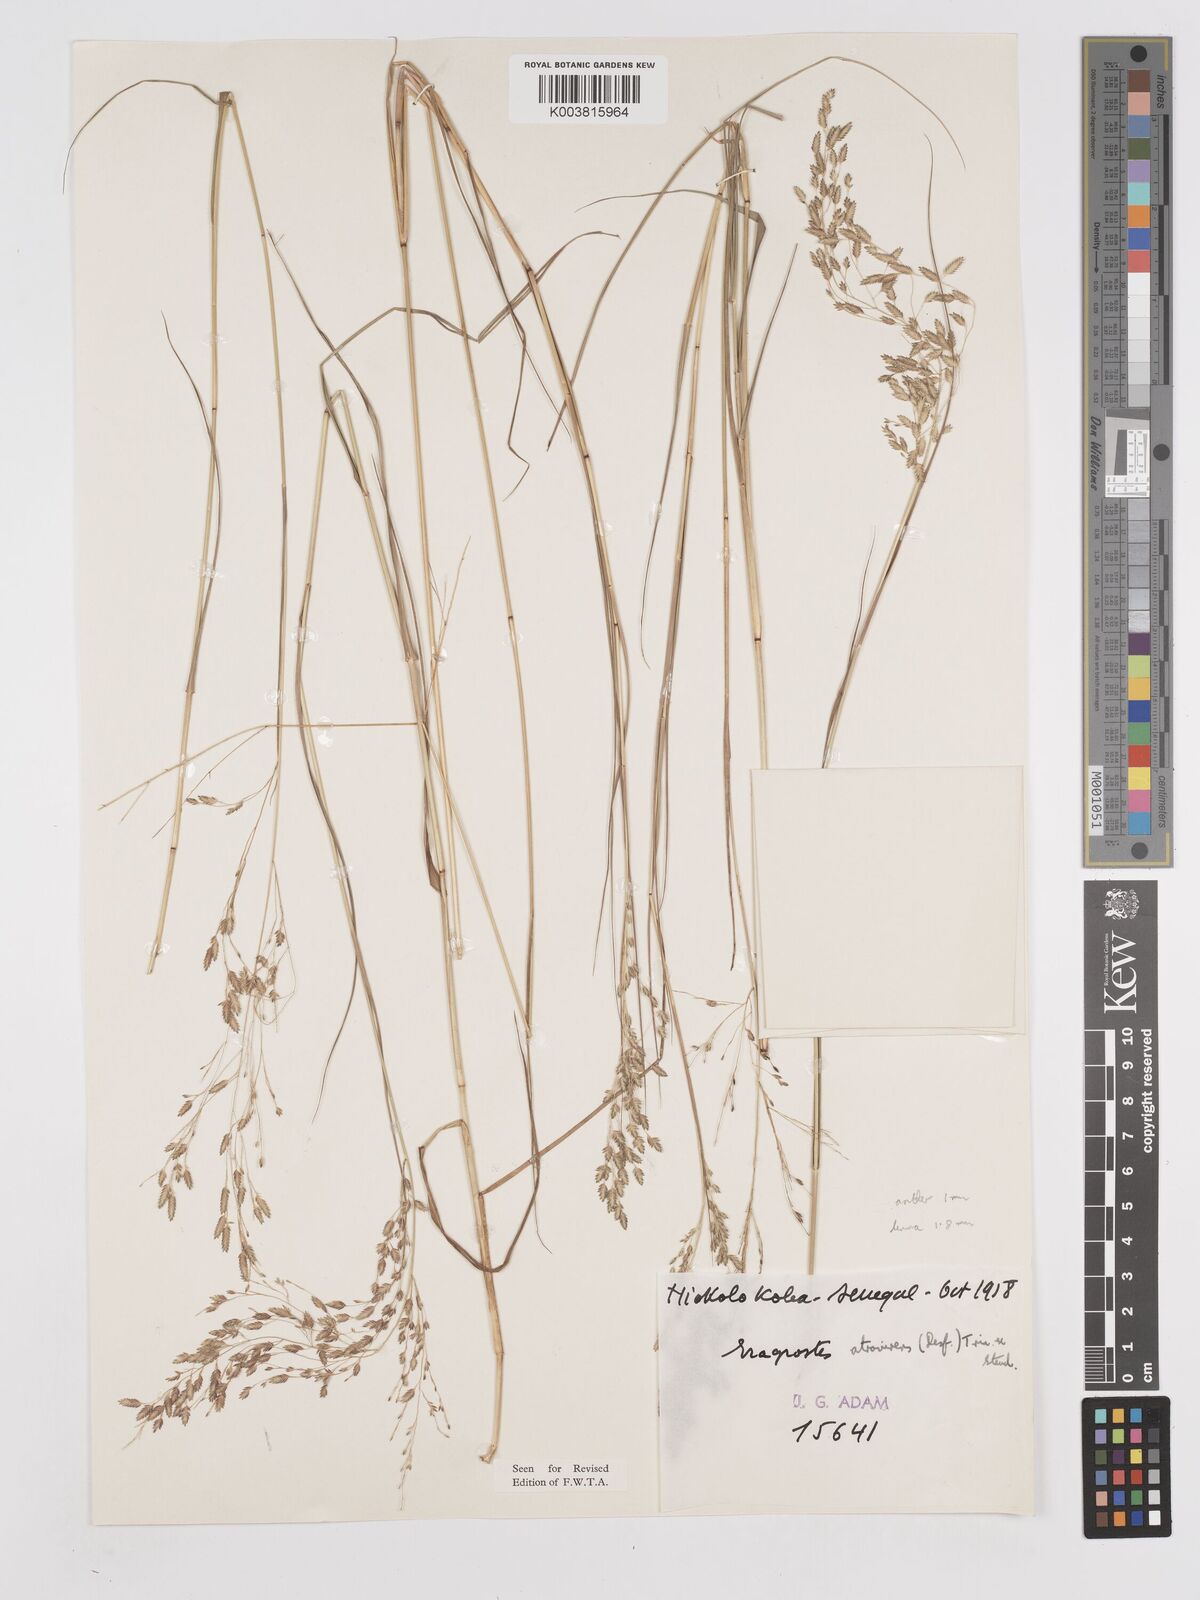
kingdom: Plantae
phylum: Tracheophyta
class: Liliopsida
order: Poales
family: Poaceae
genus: Eragrostis
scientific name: Eragrostis atrovirens
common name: Thalia lovegrass
